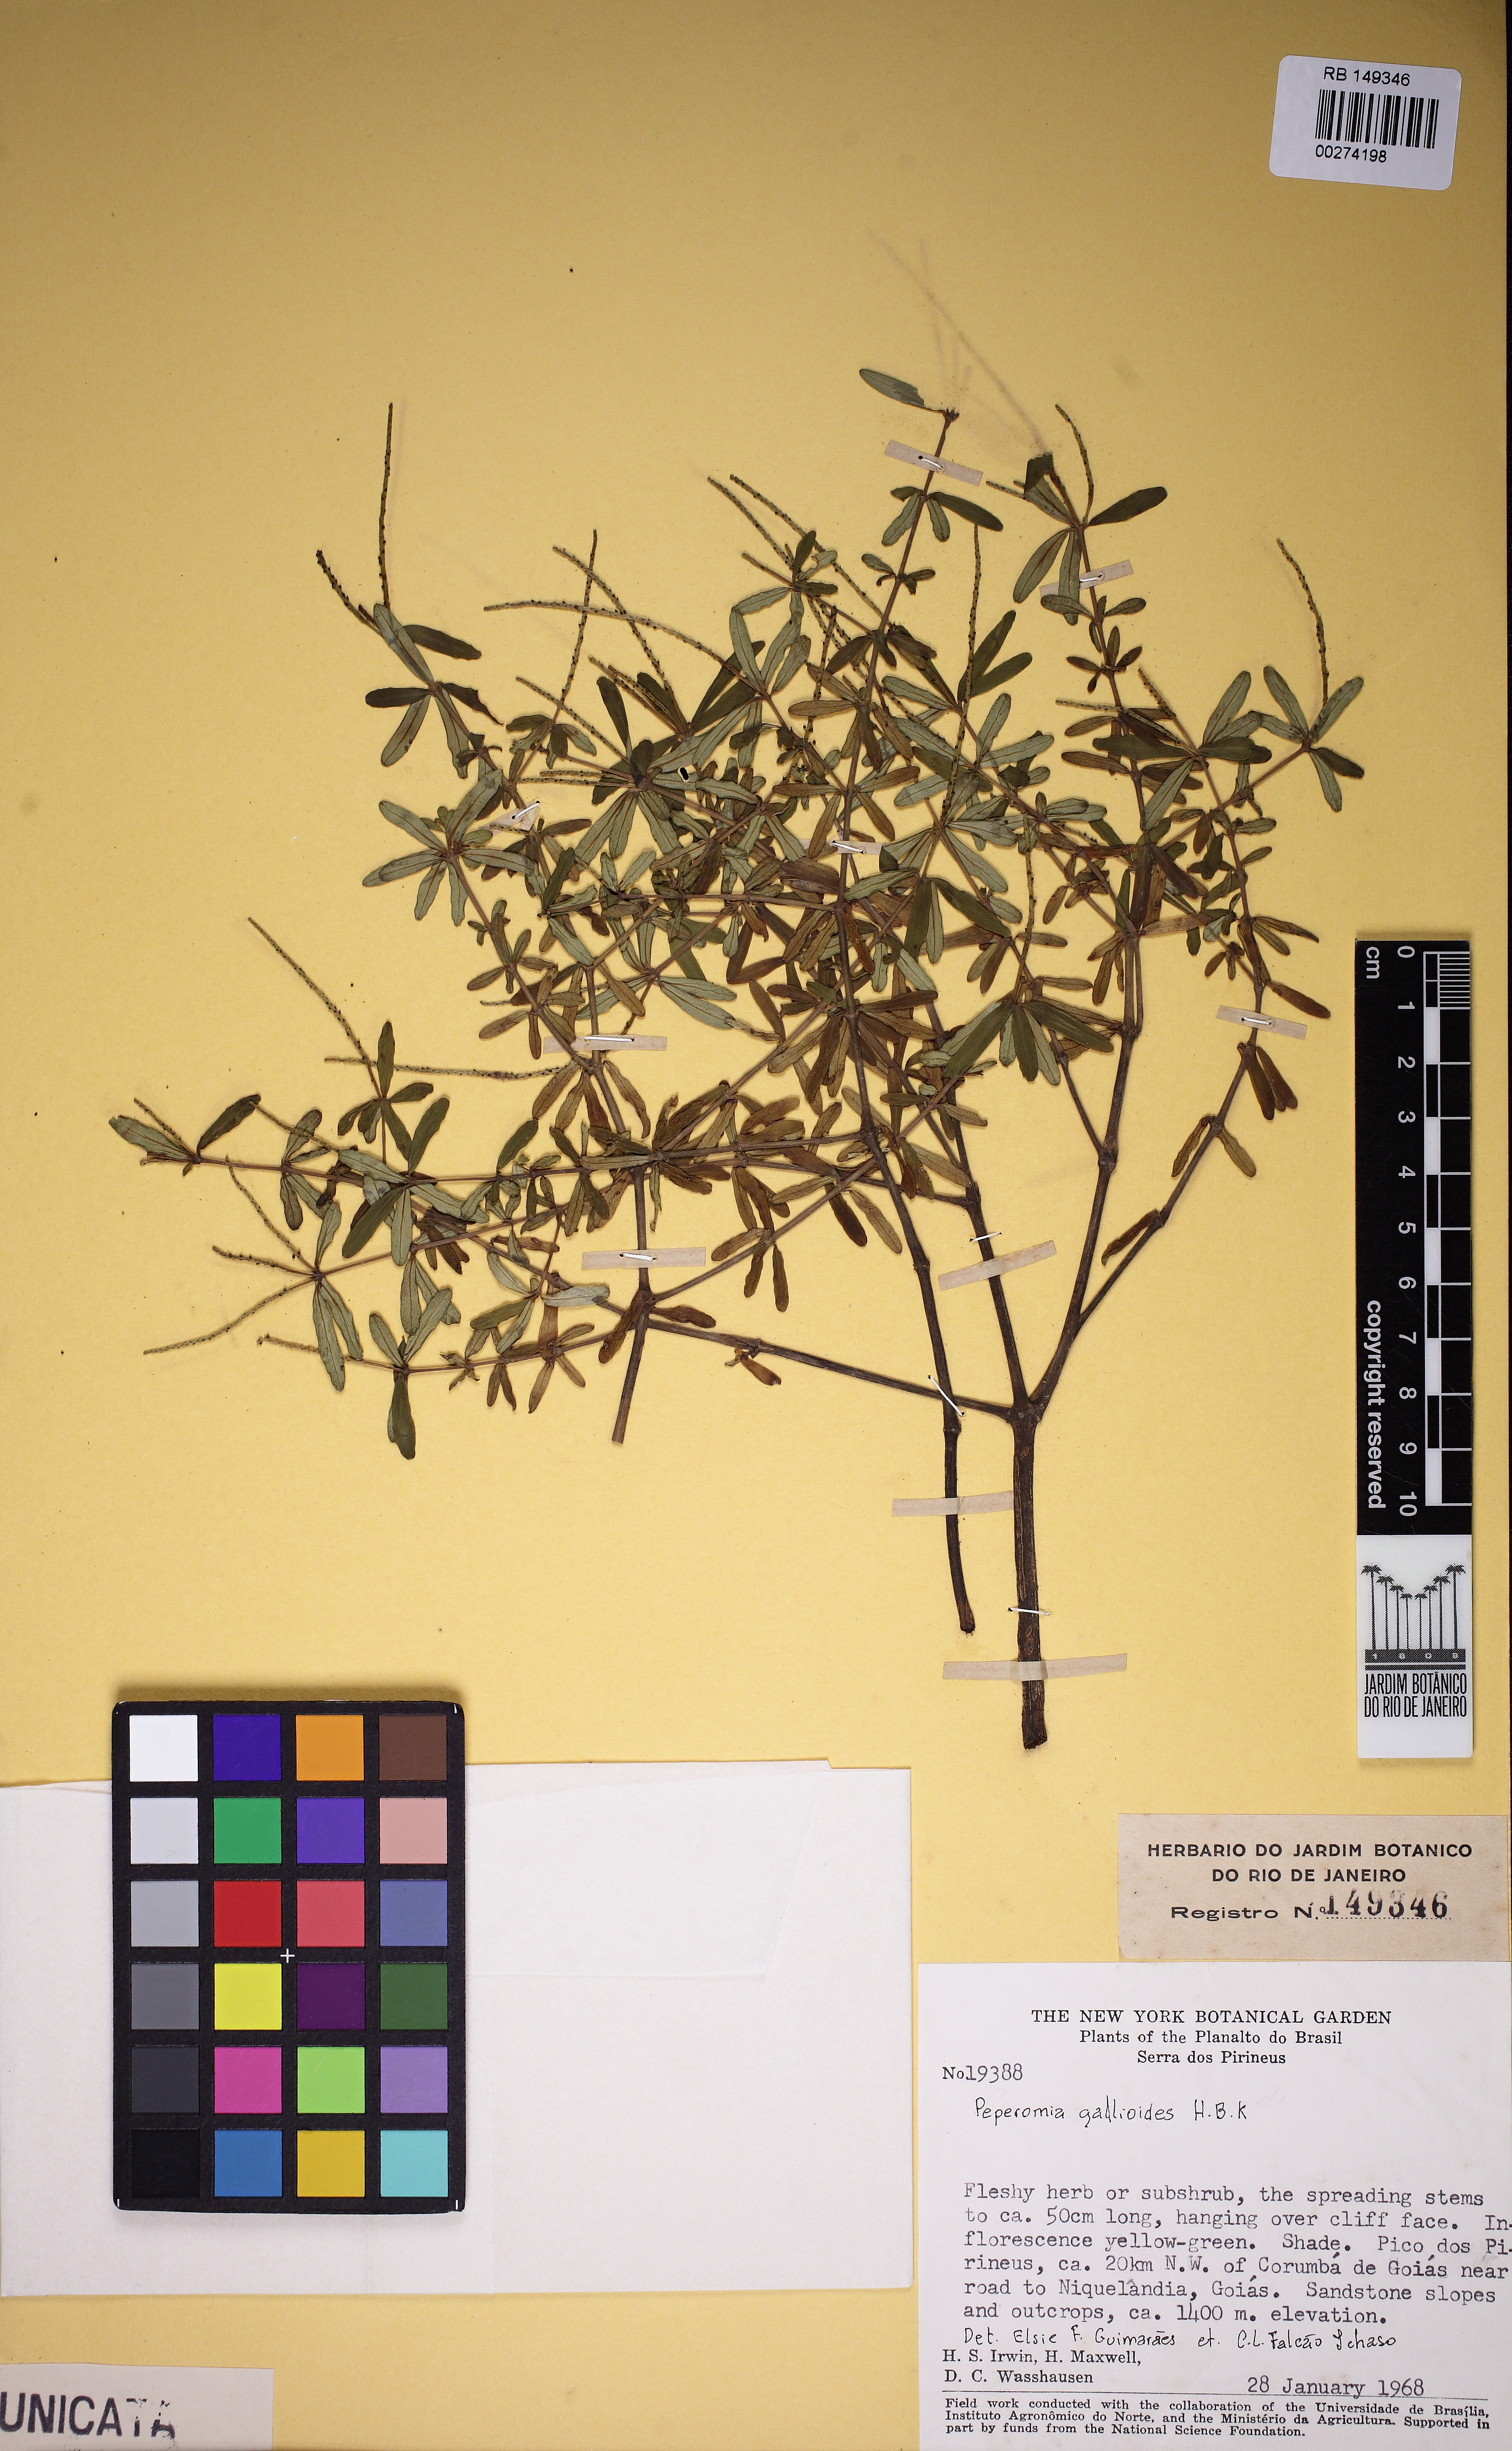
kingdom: Plantae
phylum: Tracheophyta
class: Magnoliopsida
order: Piperales
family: Piperaceae
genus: Peperomia
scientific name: Peperomia galioides
